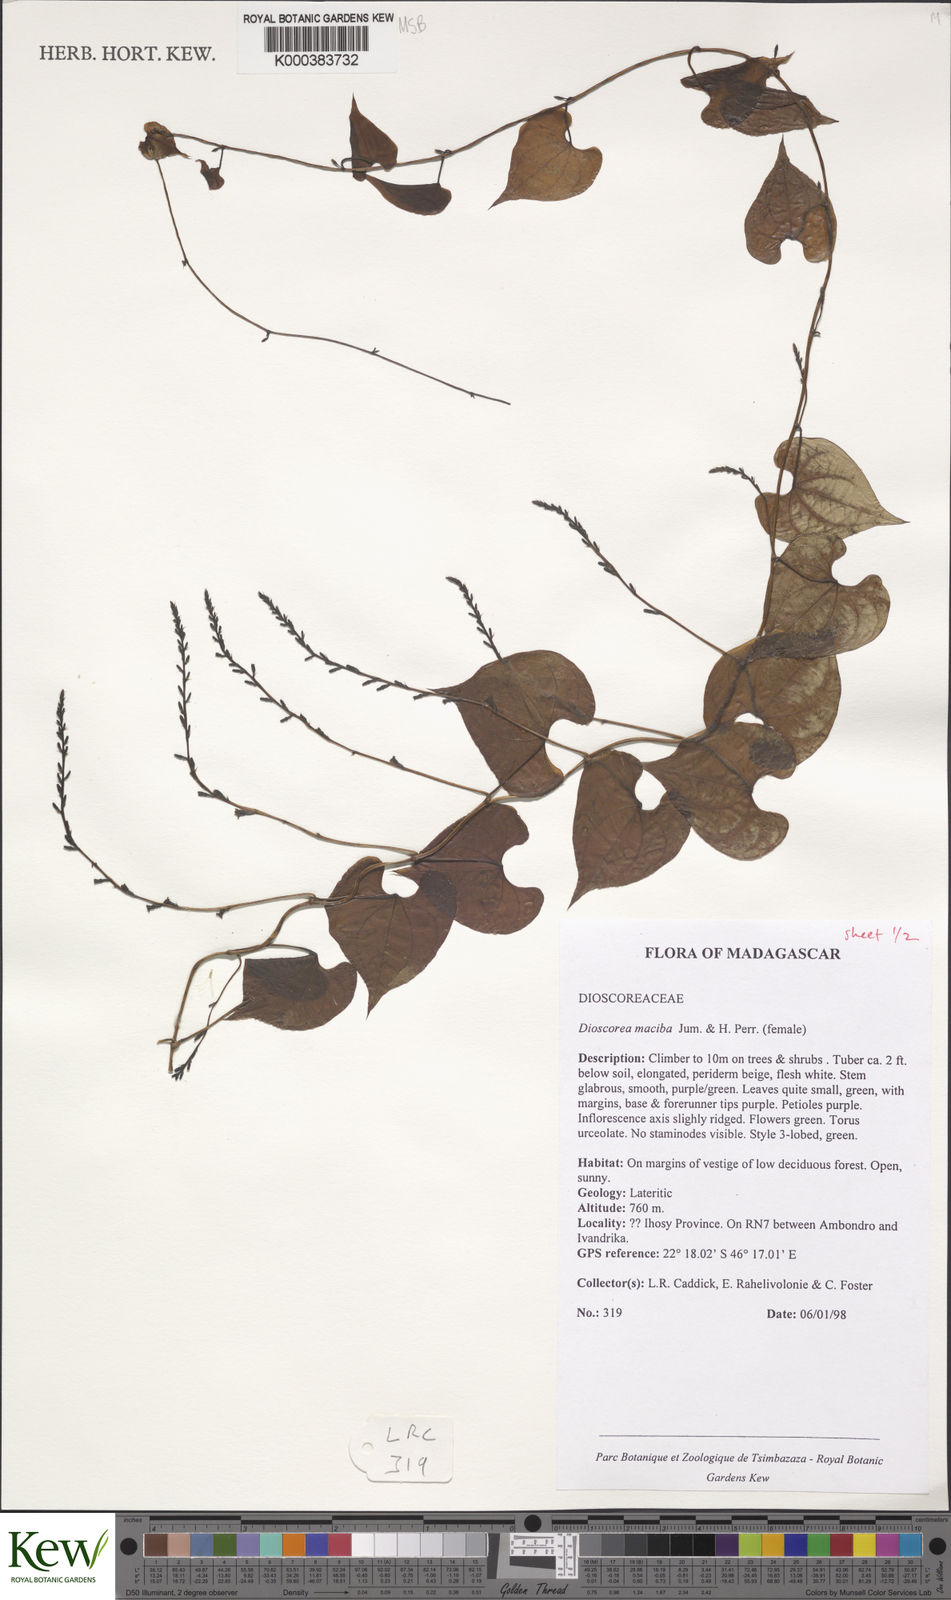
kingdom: Plantae
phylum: Tracheophyta
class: Liliopsida
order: Dioscoreales
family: Dioscoreaceae
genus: Dioscorea
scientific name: Dioscorea
